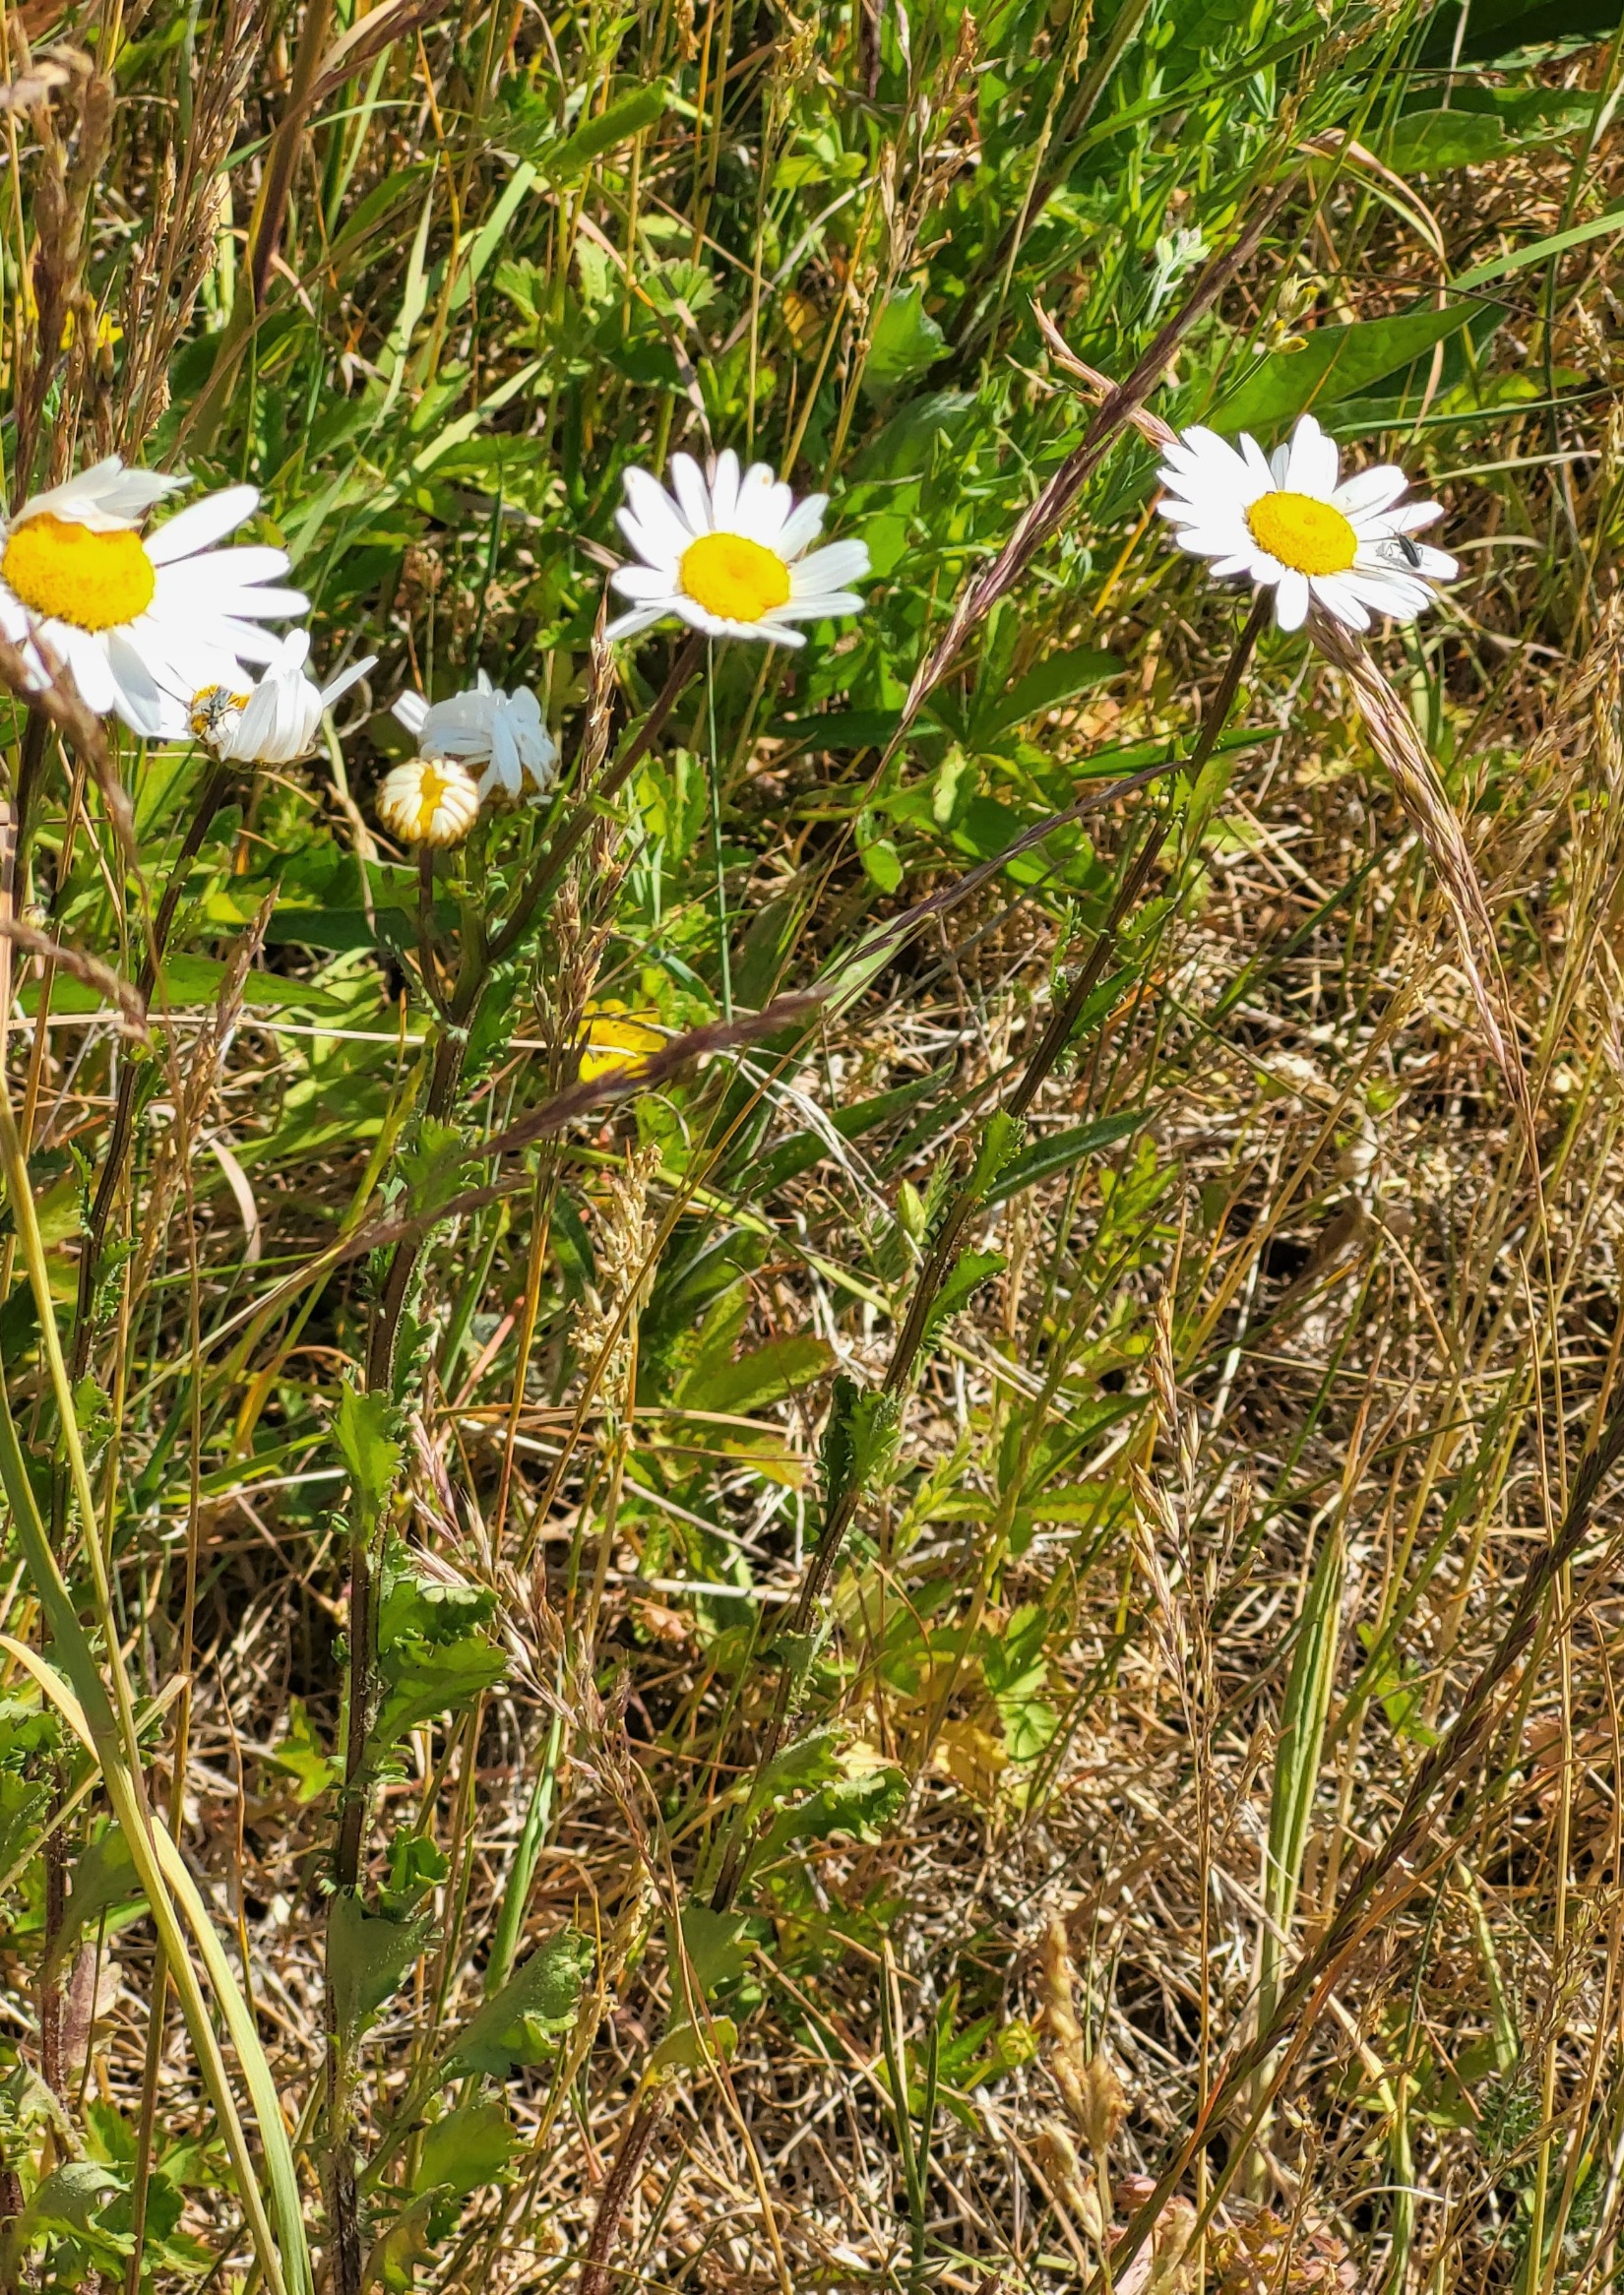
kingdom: Plantae
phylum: Tracheophyta
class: Magnoliopsida
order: Asterales
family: Asteraceae
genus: Leucanthemum
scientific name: Leucanthemum vulgare
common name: Hvid okseøje
